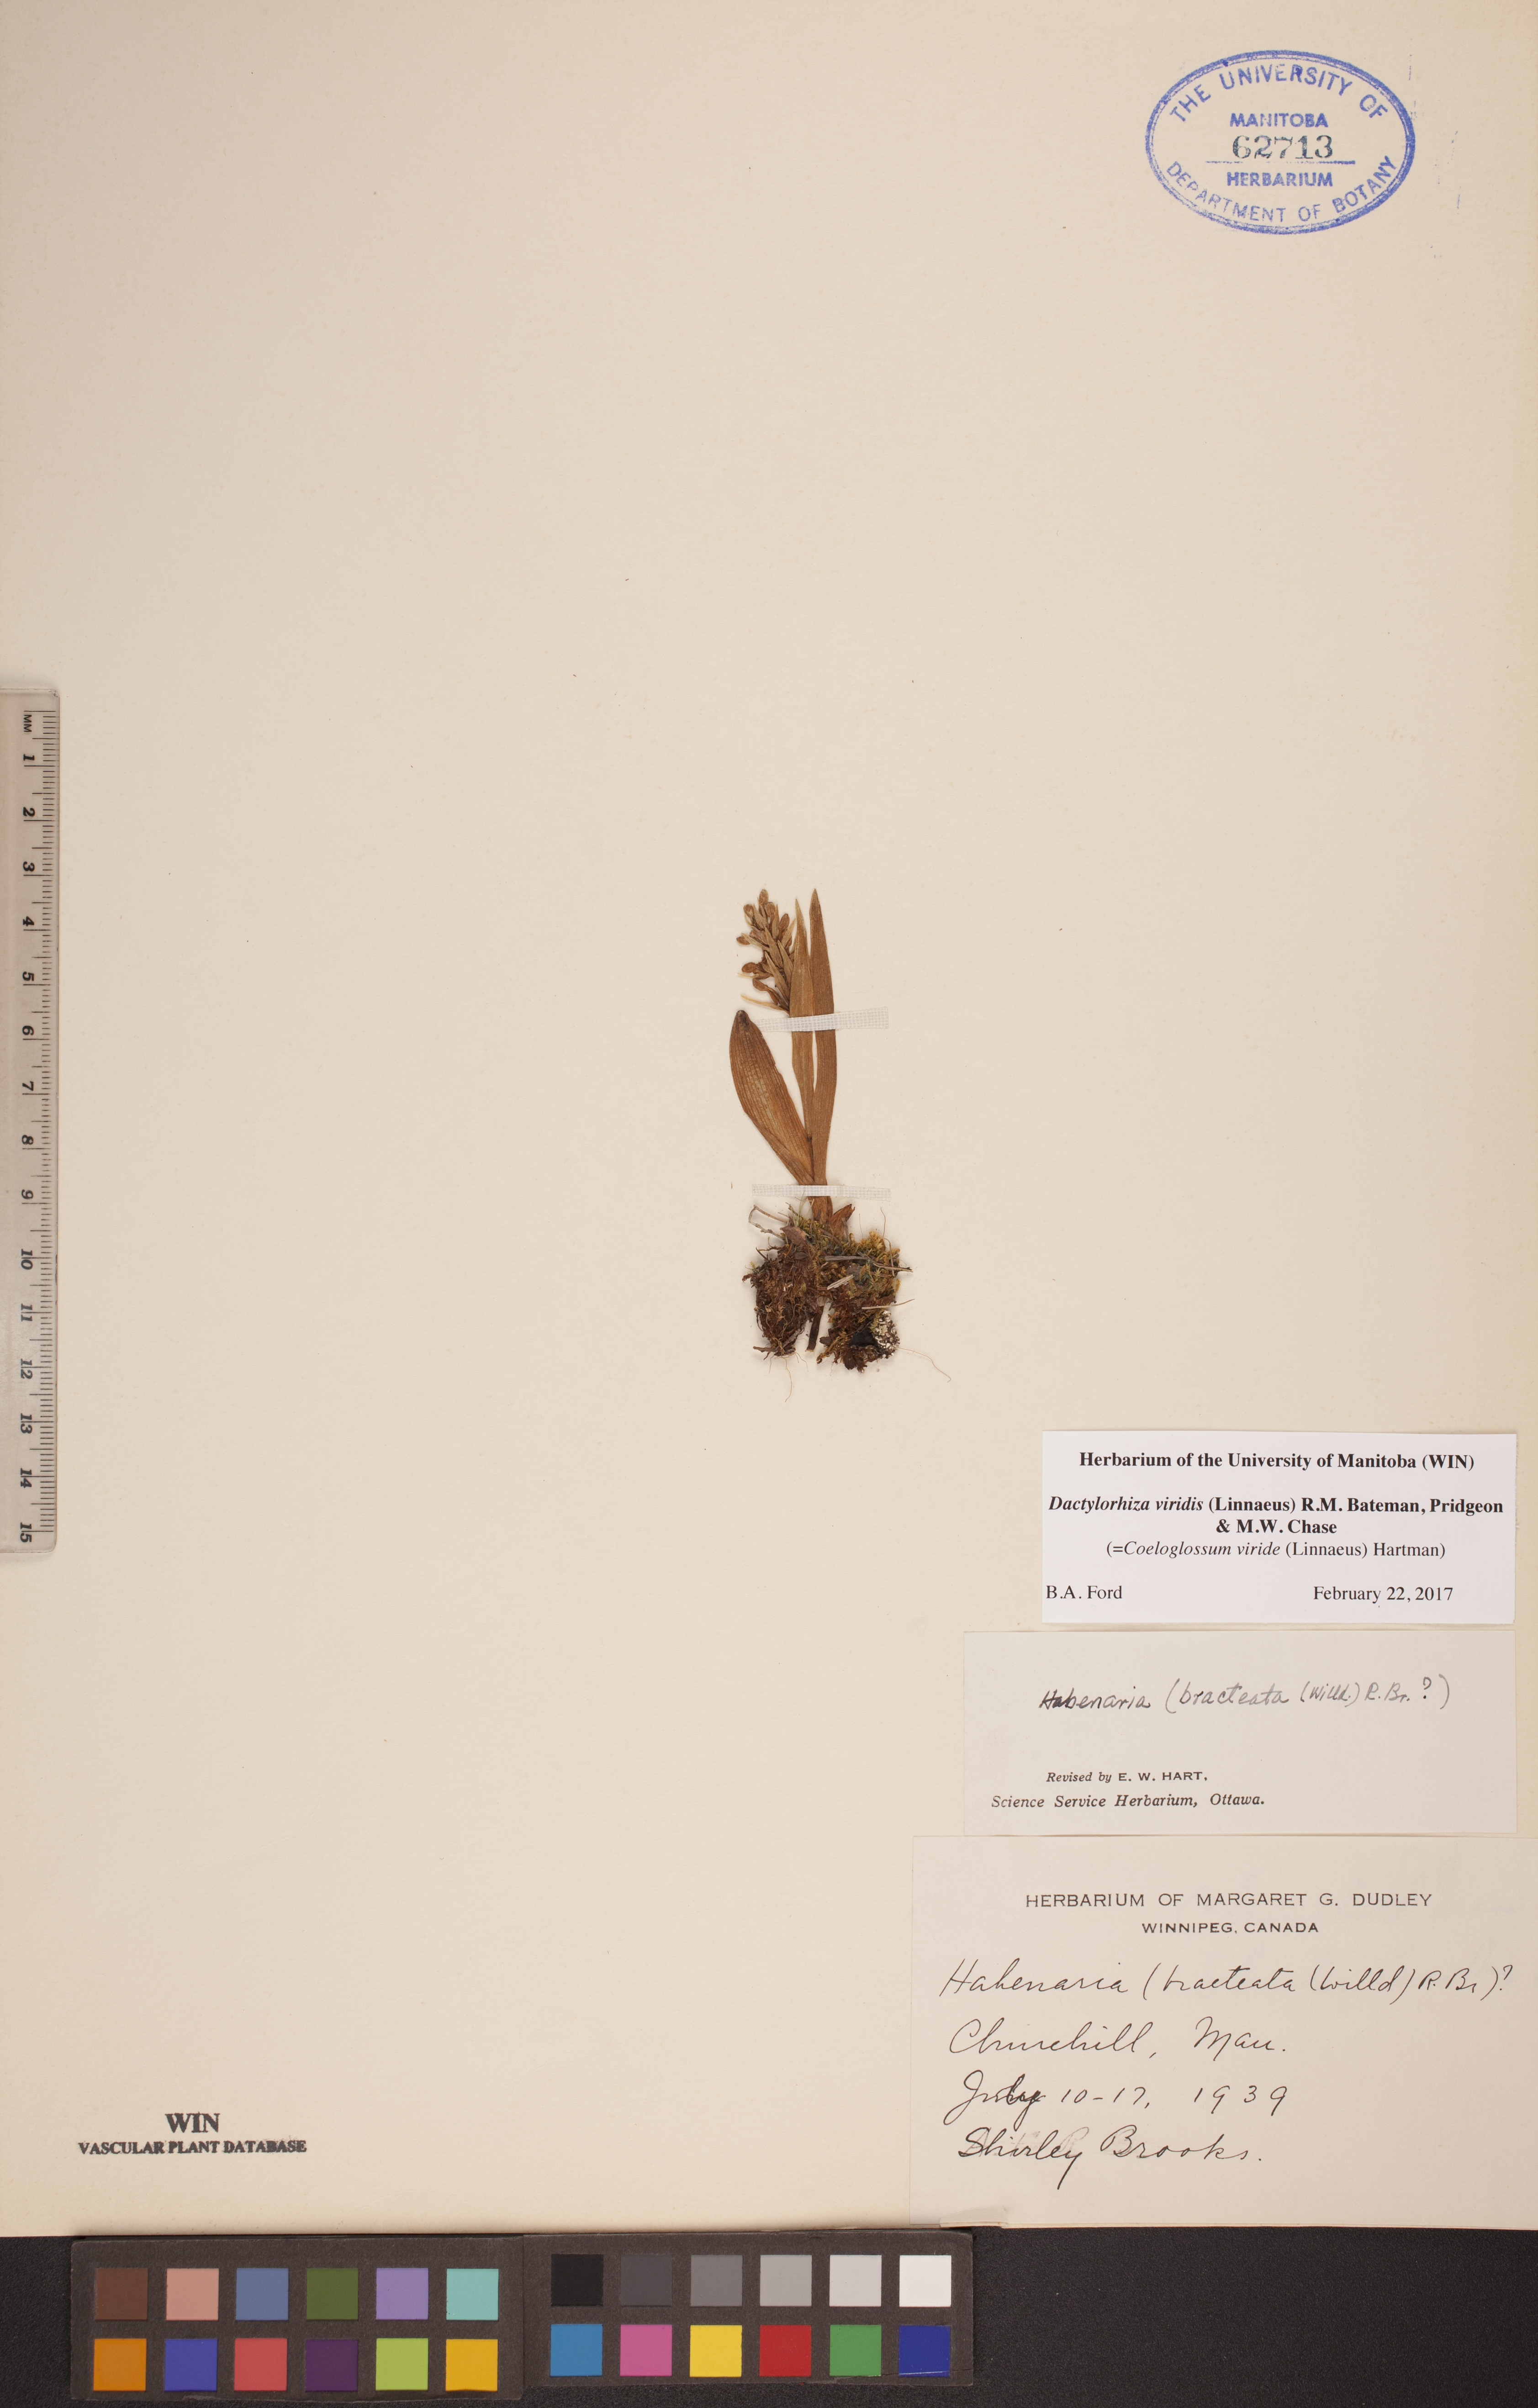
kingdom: Plantae
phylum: Tracheophyta
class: Liliopsida
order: Asparagales
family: Orchidaceae
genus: Dactylorhiza
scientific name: Dactylorhiza viridis
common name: Longbract frog orchid
